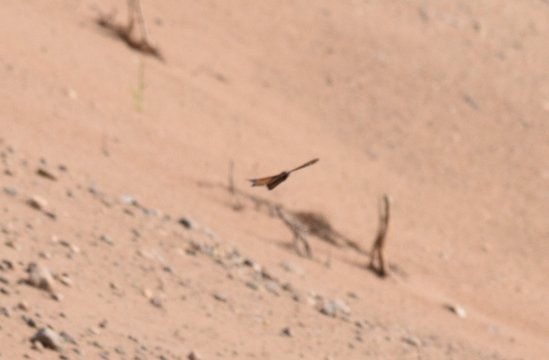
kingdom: Animalia
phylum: Arthropoda
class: Insecta
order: Lepidoptera
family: Nymphalidae
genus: Danaus
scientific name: Danaus plexippus
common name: Monarch
